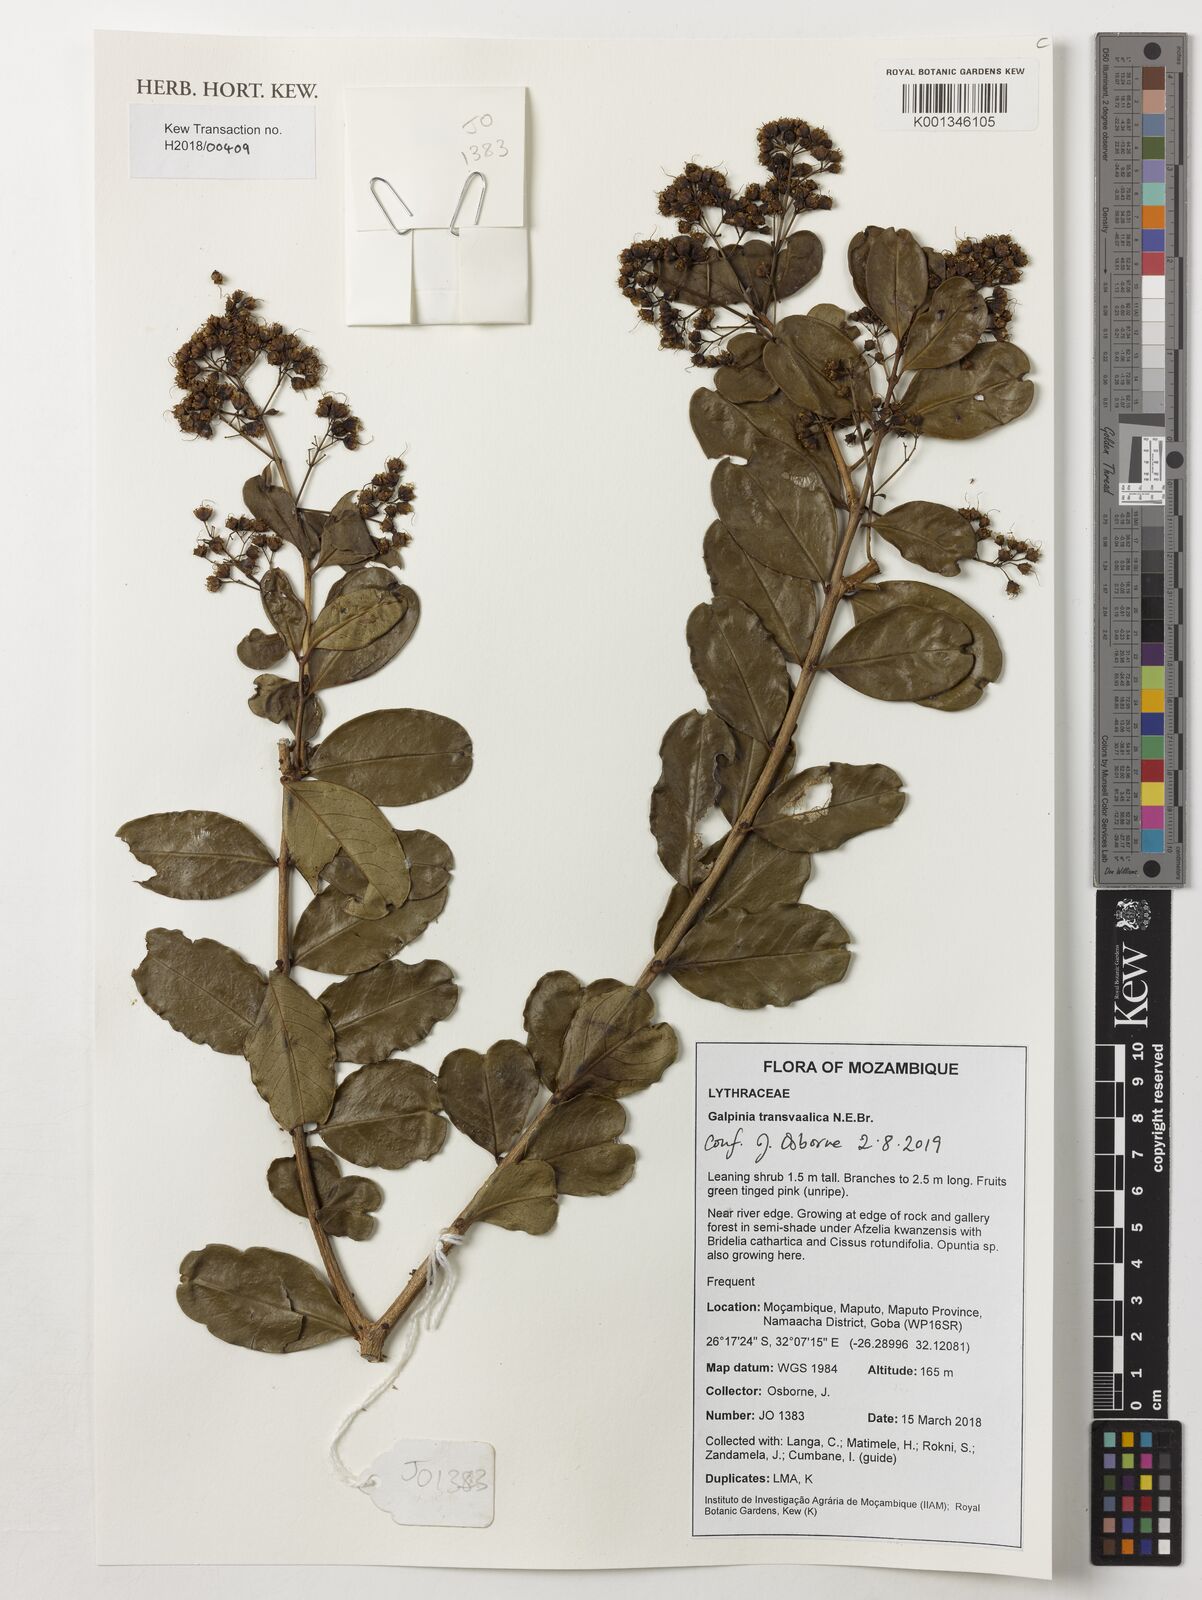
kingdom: Plantae
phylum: Tracheophyta
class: Magnoliopsida
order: Myrtales
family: Lythraceae
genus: Galpinia
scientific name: Galpinia transvaalica
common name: Wild pride of india
